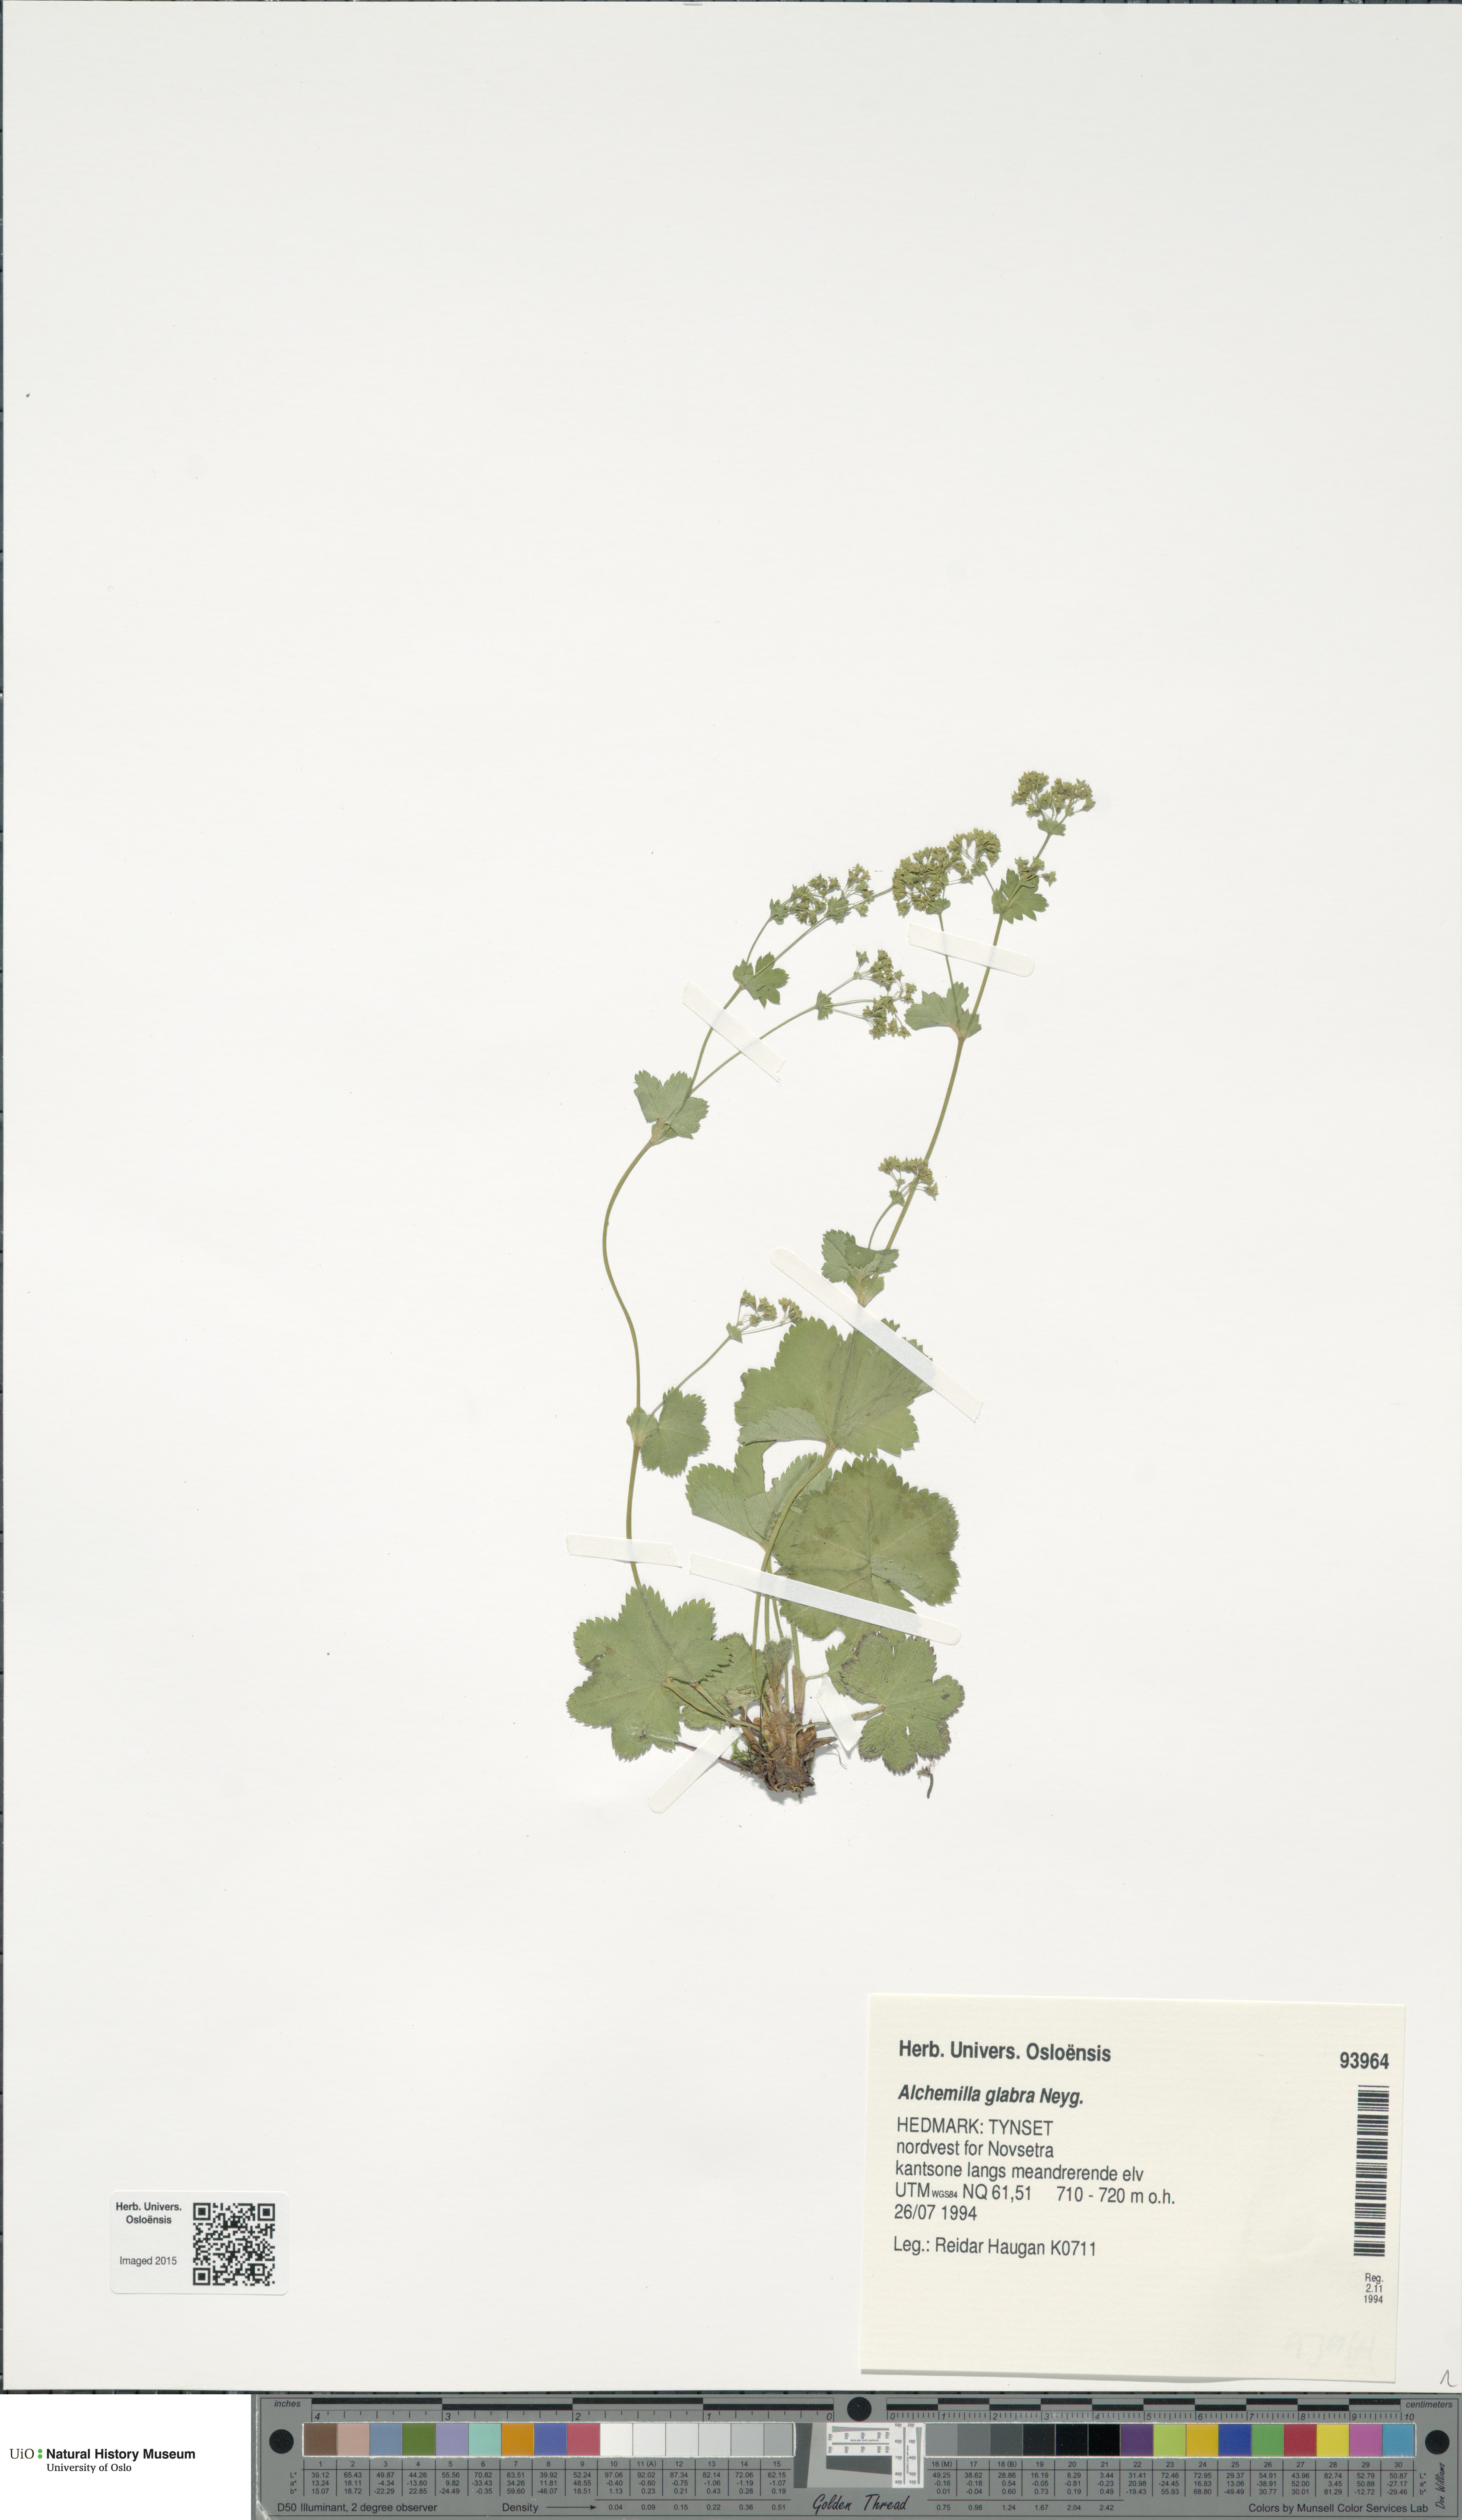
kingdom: Plantae
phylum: Tracheophyta
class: Magnoliopsida
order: Rosales
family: Rosaceae
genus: Alchemilla
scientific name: Alchemilla glabra
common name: Smooth lady's-mantle
